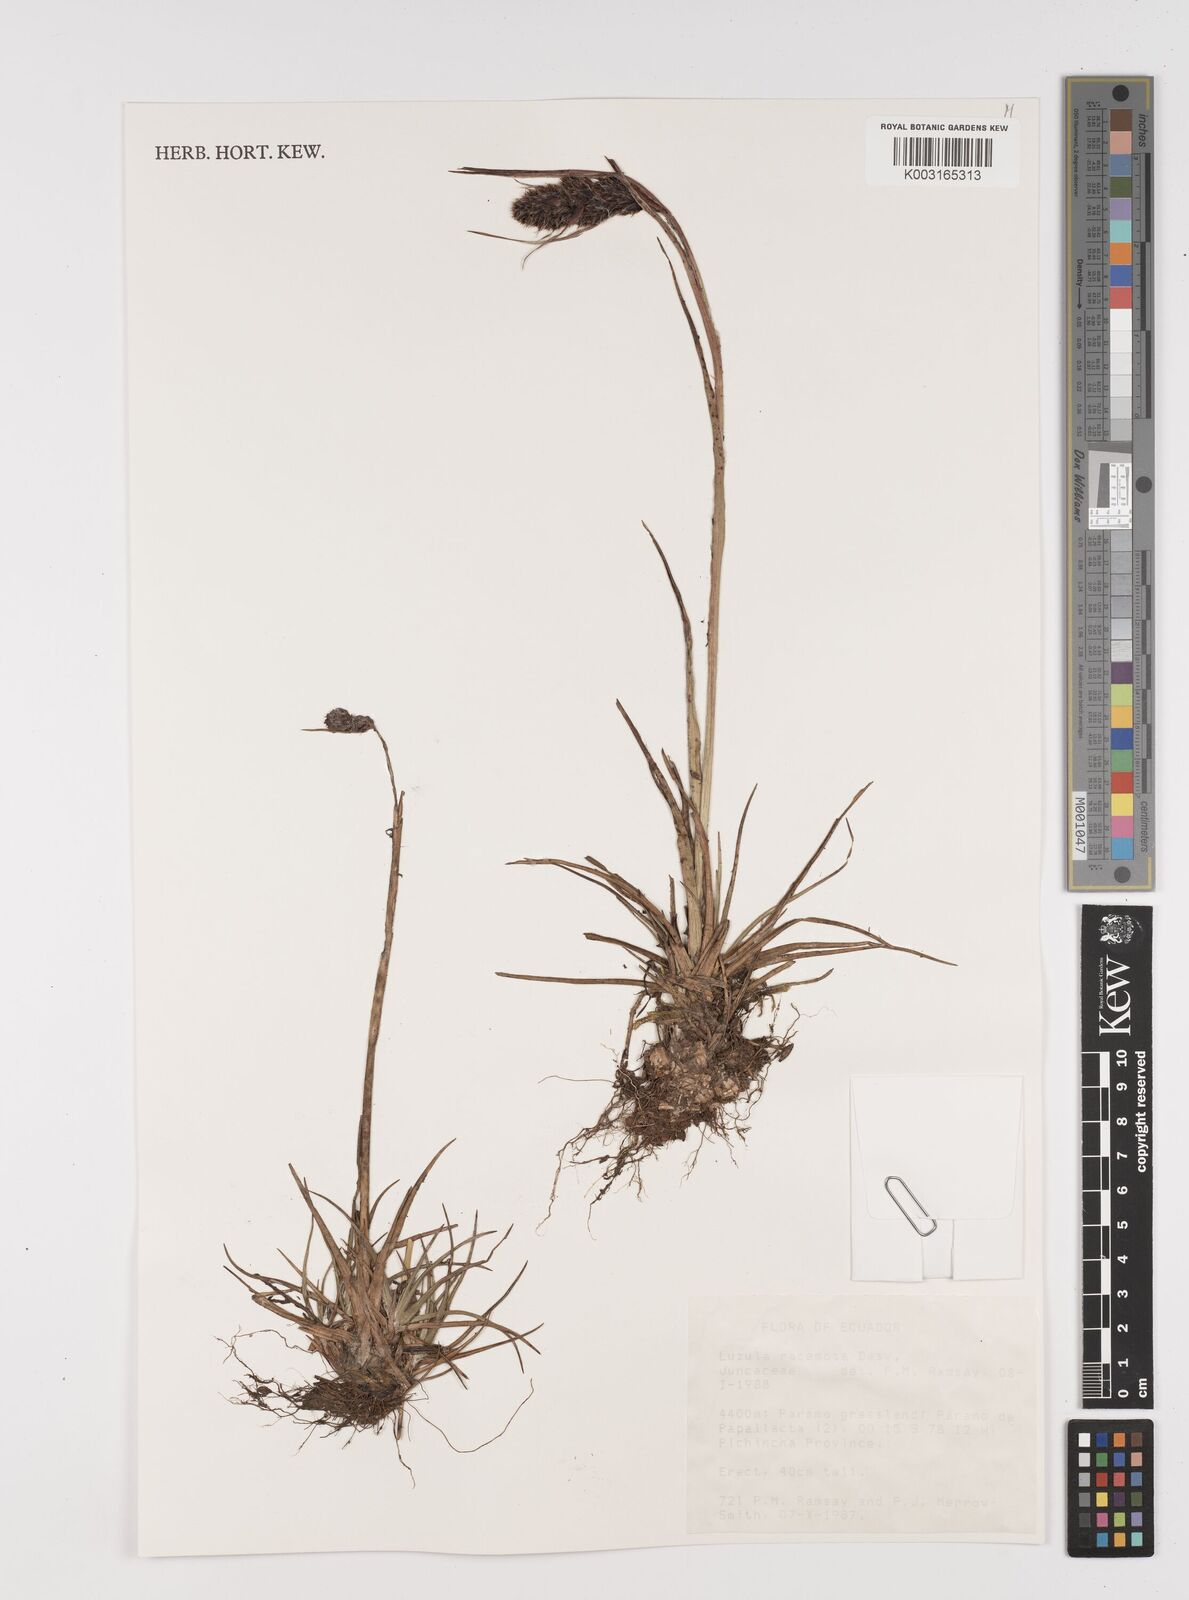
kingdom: Plantae
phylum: Tracheophyta
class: Liliopsida
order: Poales
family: Juncaceae
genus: Luzula
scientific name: Luzula racemosa
